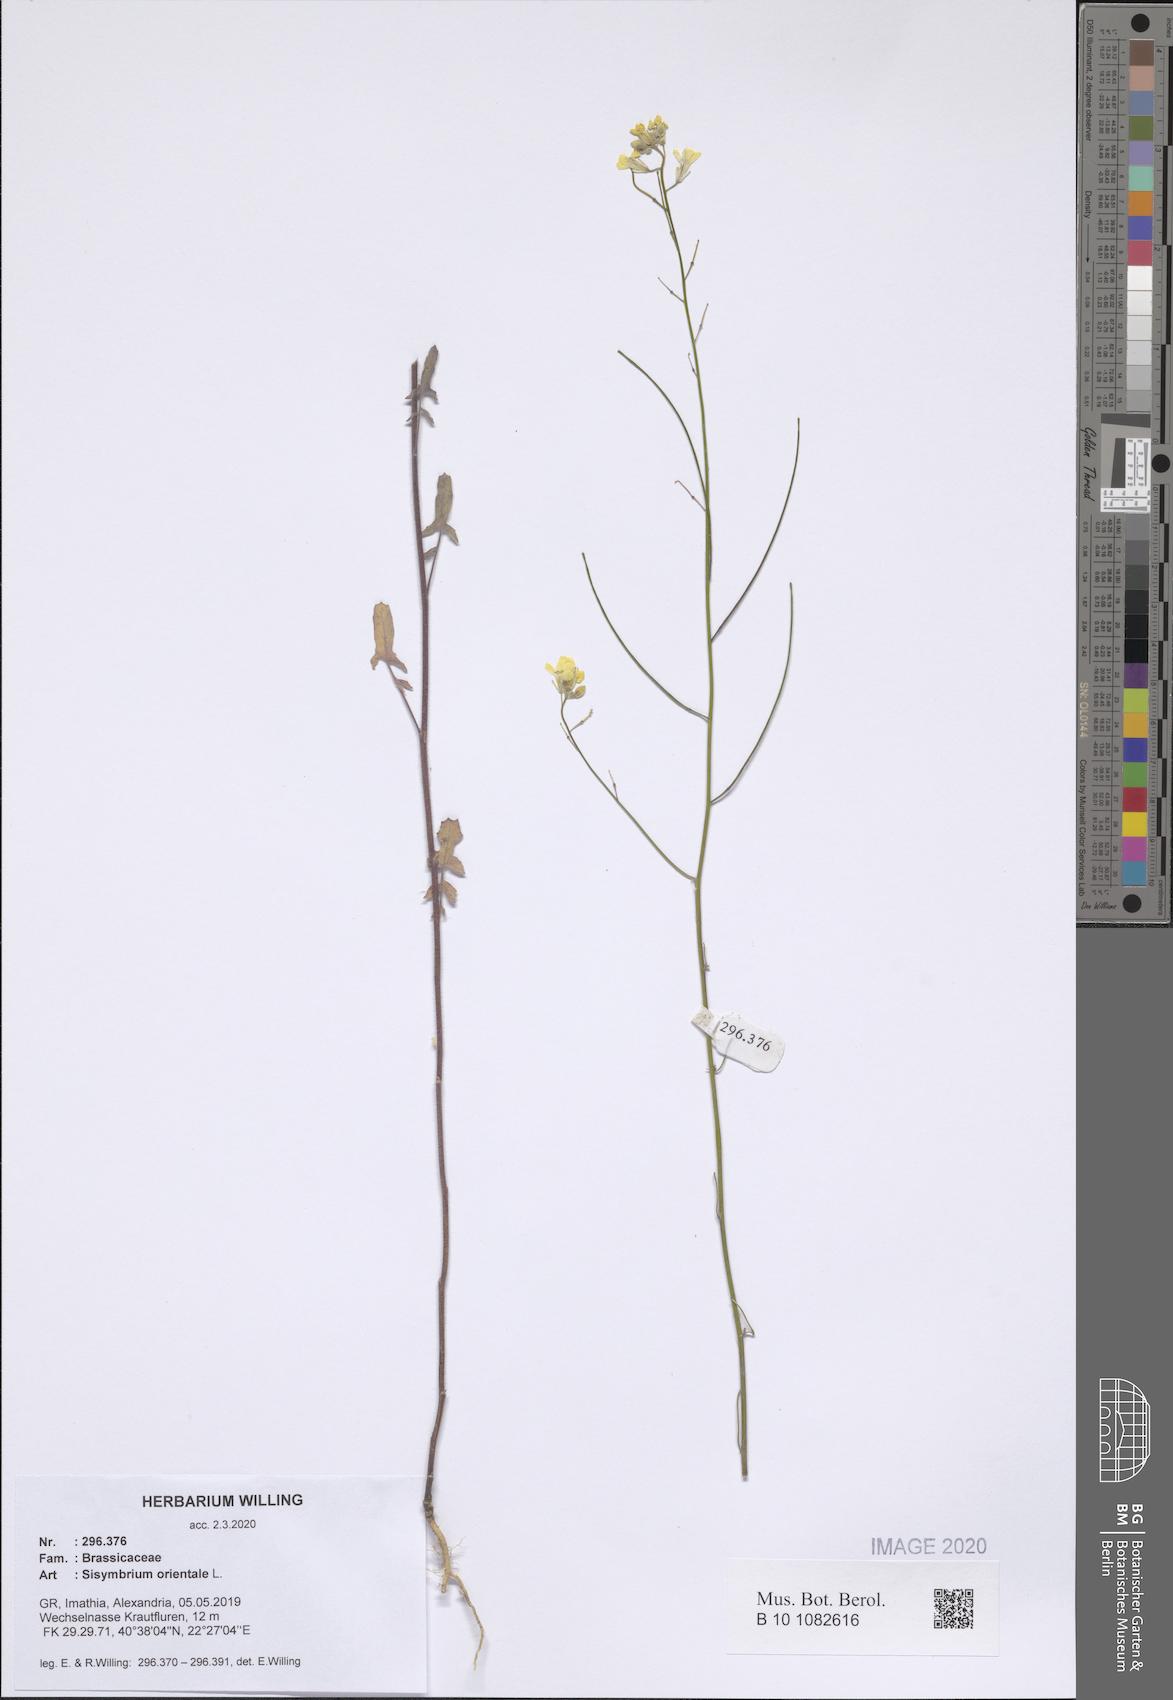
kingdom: Plantae
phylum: Tracheophyta
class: Magnoliopsida
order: Brassicales
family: Brassicaceae
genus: Sisymbrium
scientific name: Sisymbrium orientale
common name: Eastern rocket
